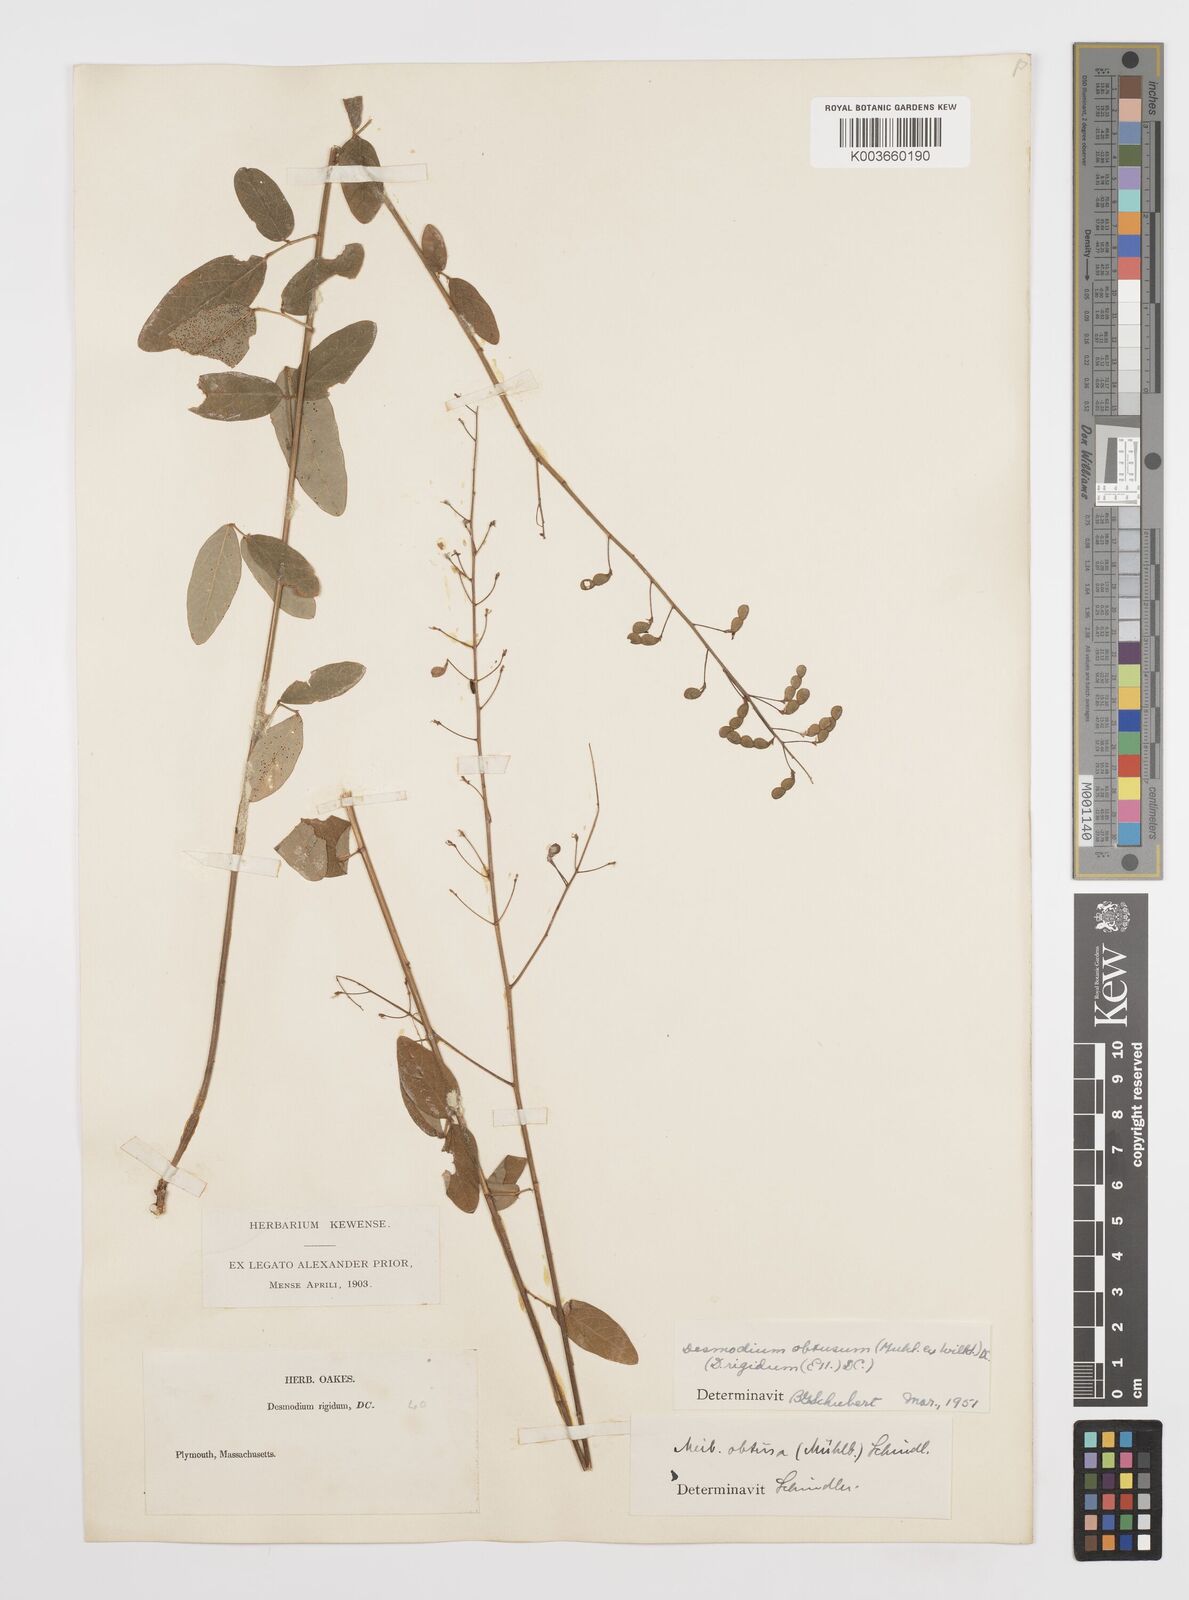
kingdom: Plantae
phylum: Tracheophyta
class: Magnoliopsida
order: Fabales
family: Fabaceae
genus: Desmodium
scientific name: Desmodium obtusum
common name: Stiff tick trefoil
